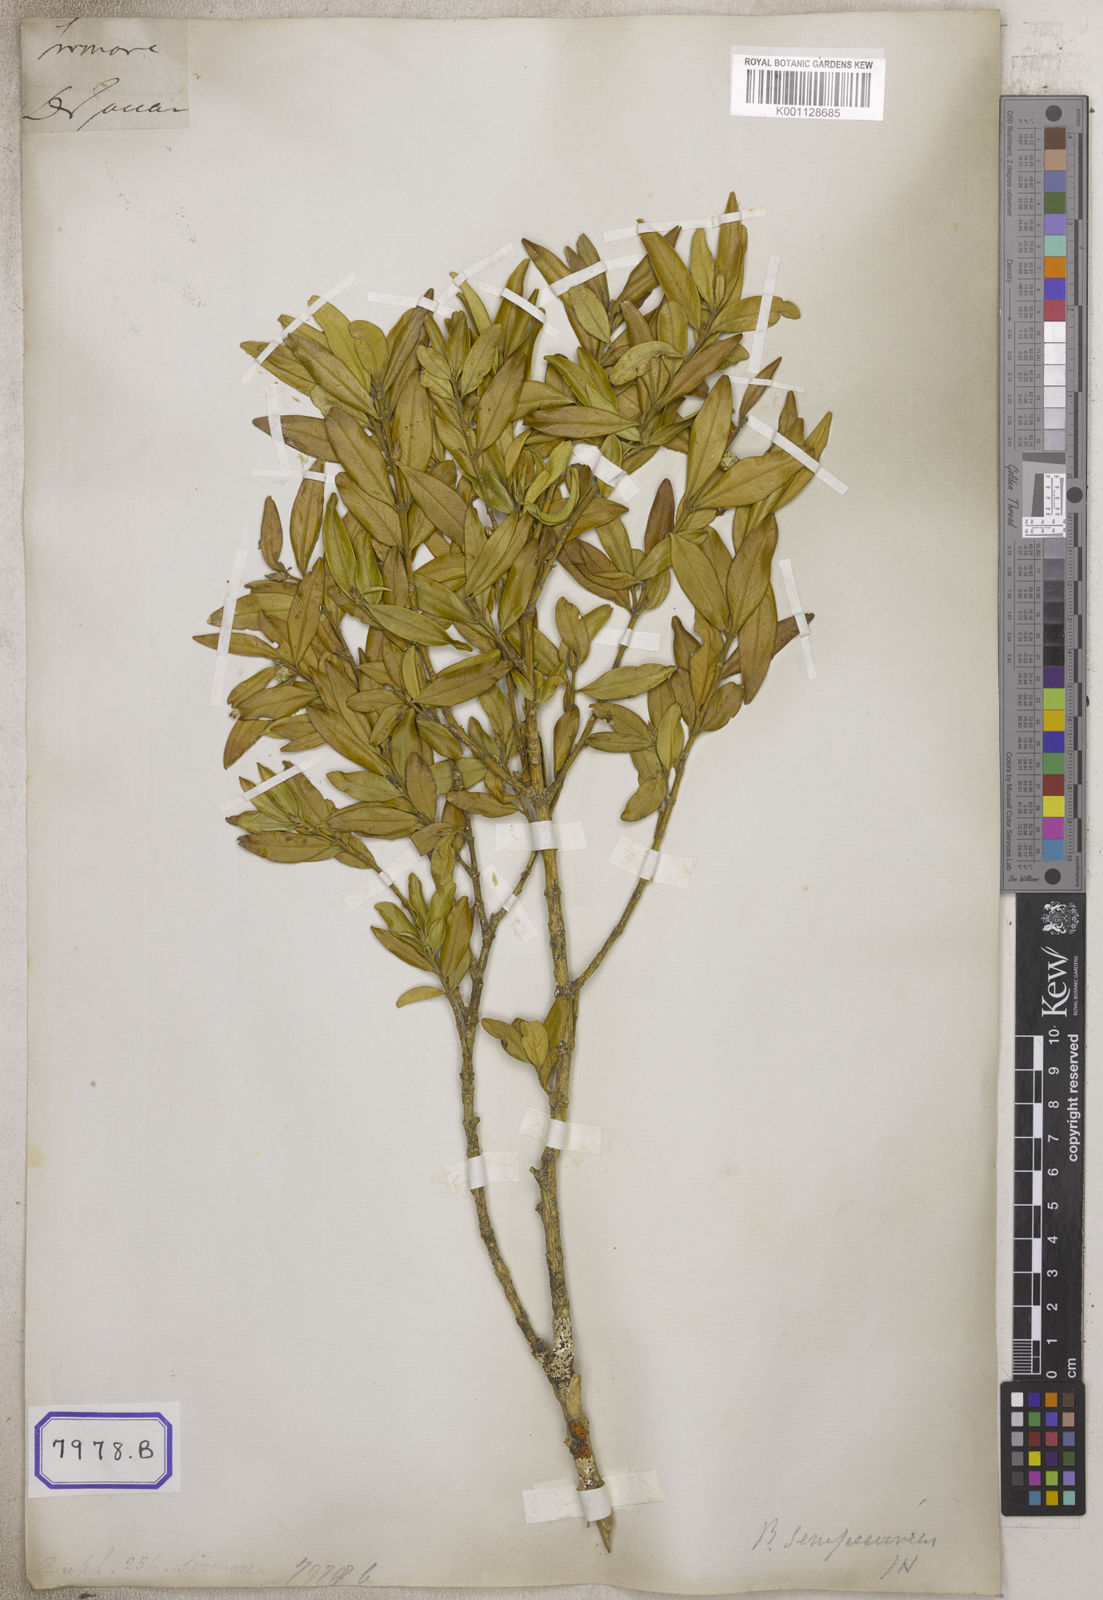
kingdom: Plantae
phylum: Tracheophyta
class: Magnoliopsida
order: Buxales
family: Buxaceae
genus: Buxus
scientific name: Buxus
